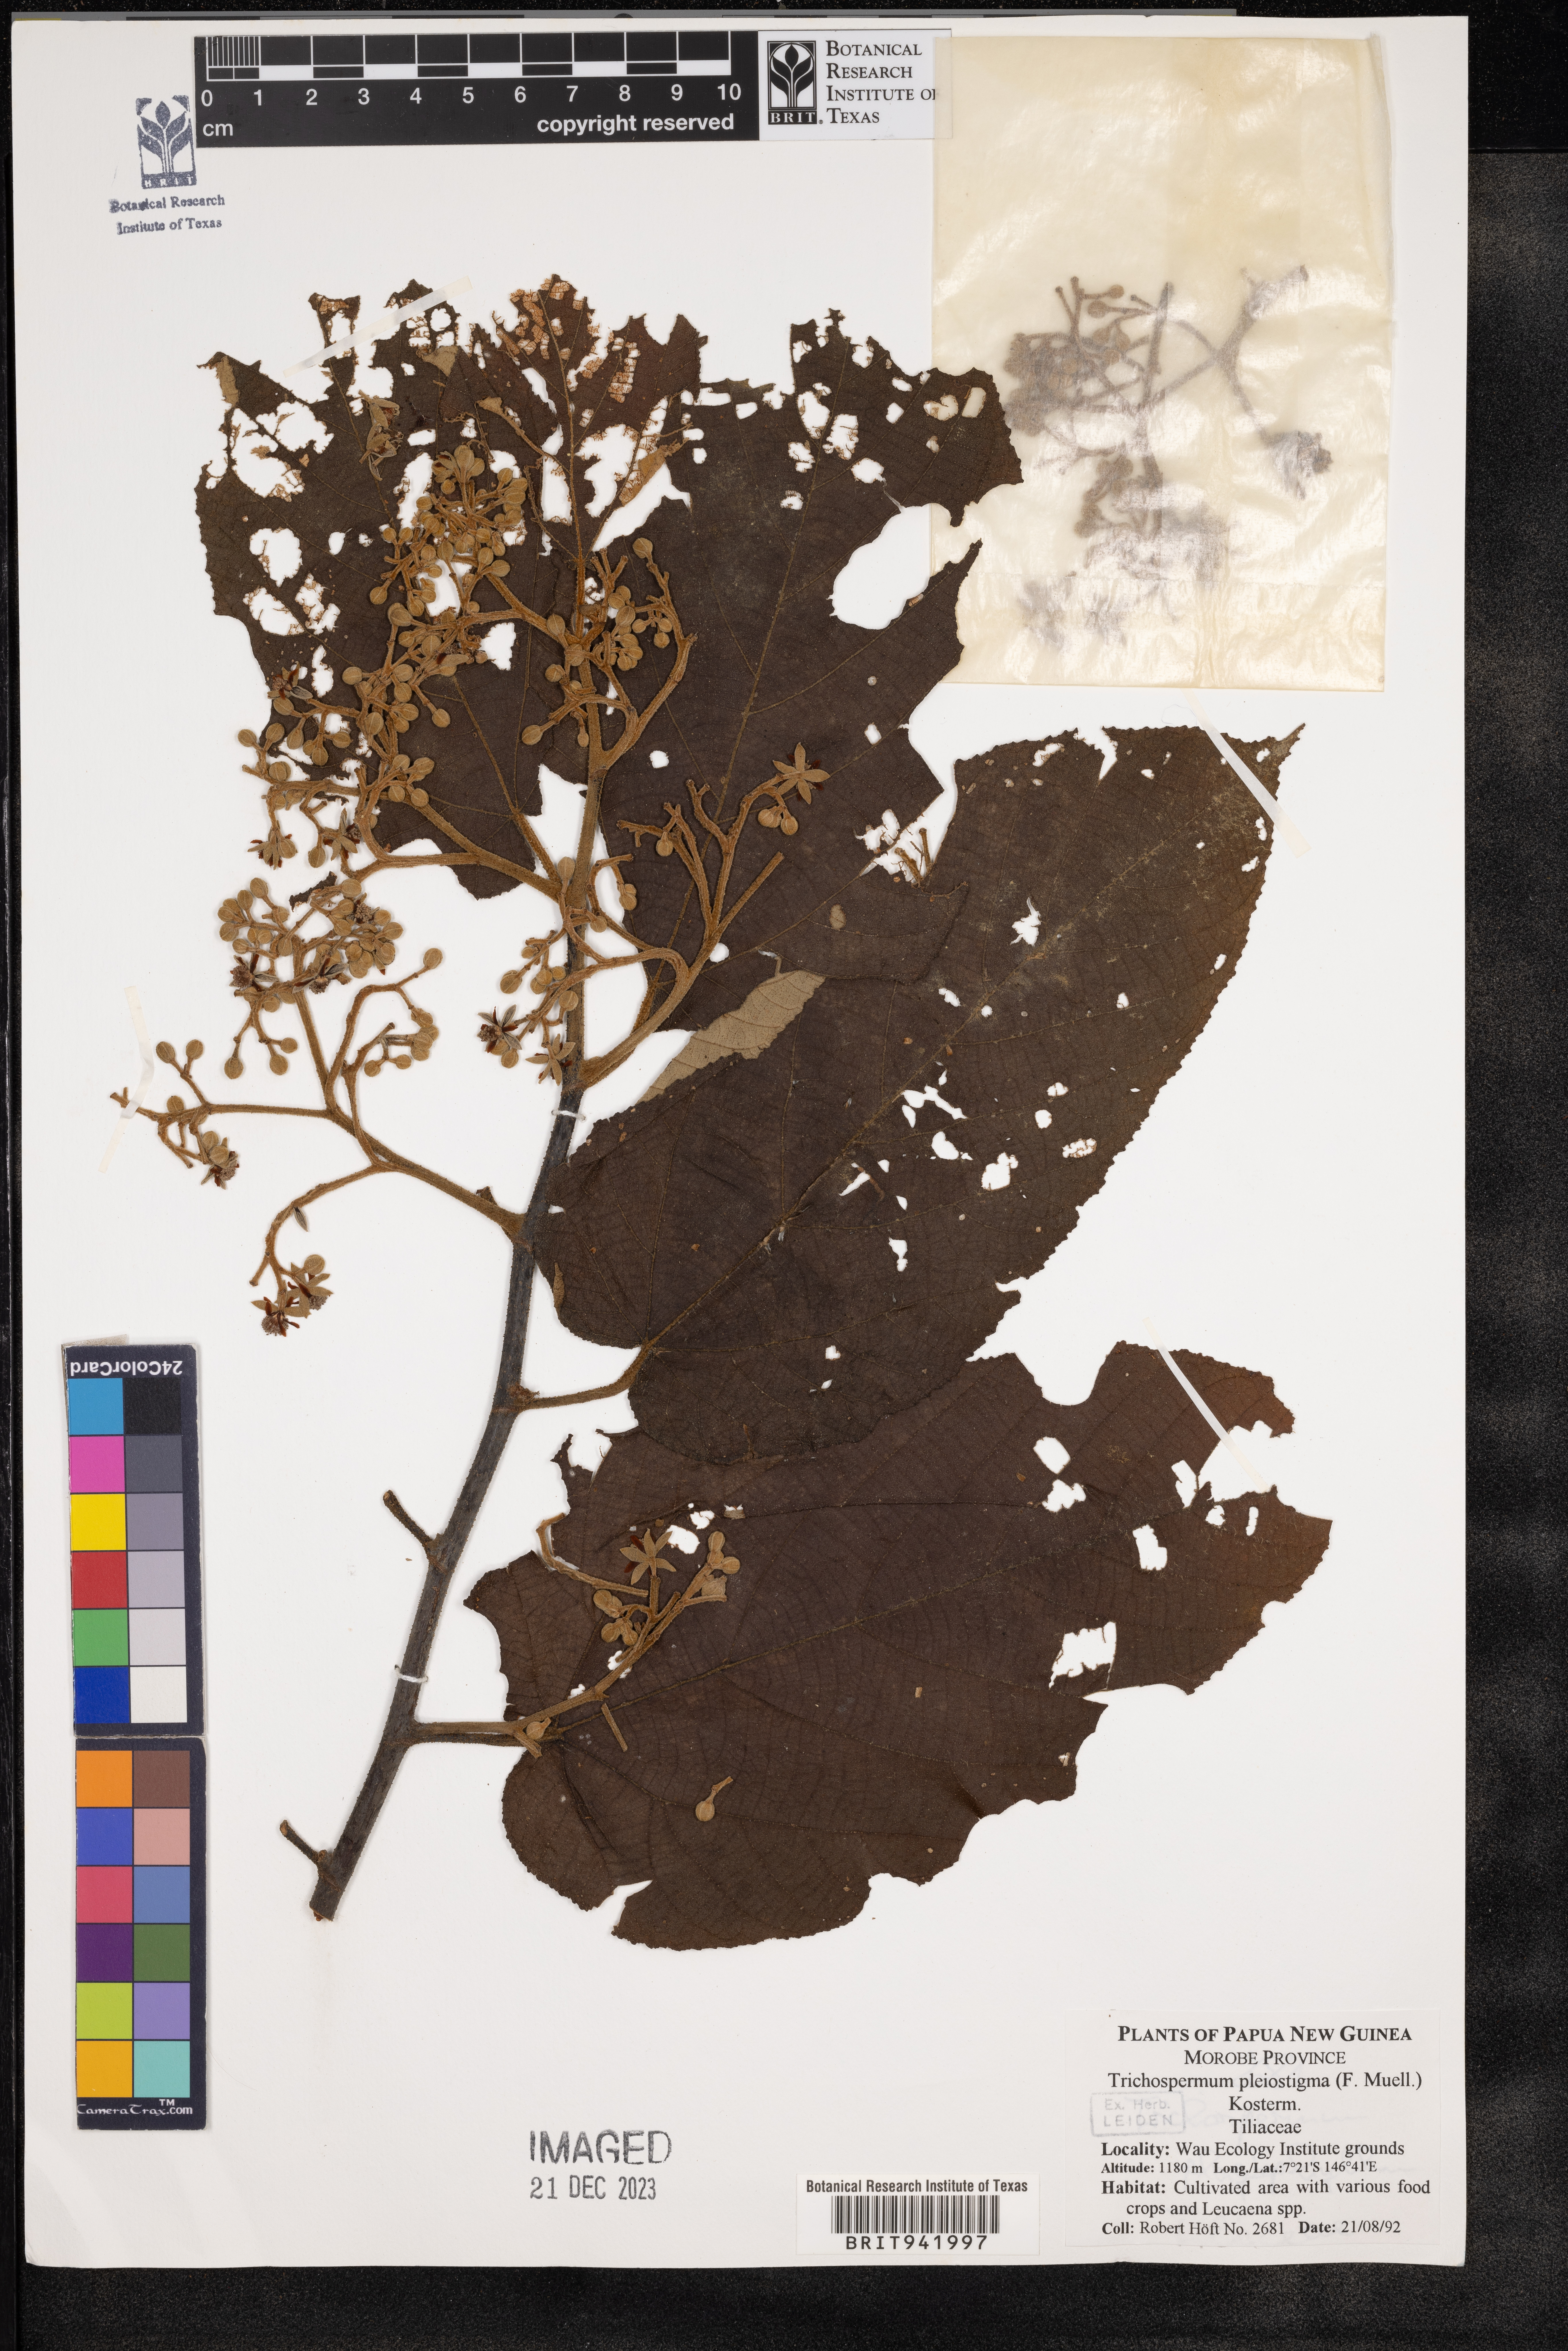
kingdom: Plantae
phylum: Tracheophyta
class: Magnoliopsida
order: Malvales
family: Malvaceae
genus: Trichospermum
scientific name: Trichospermum
